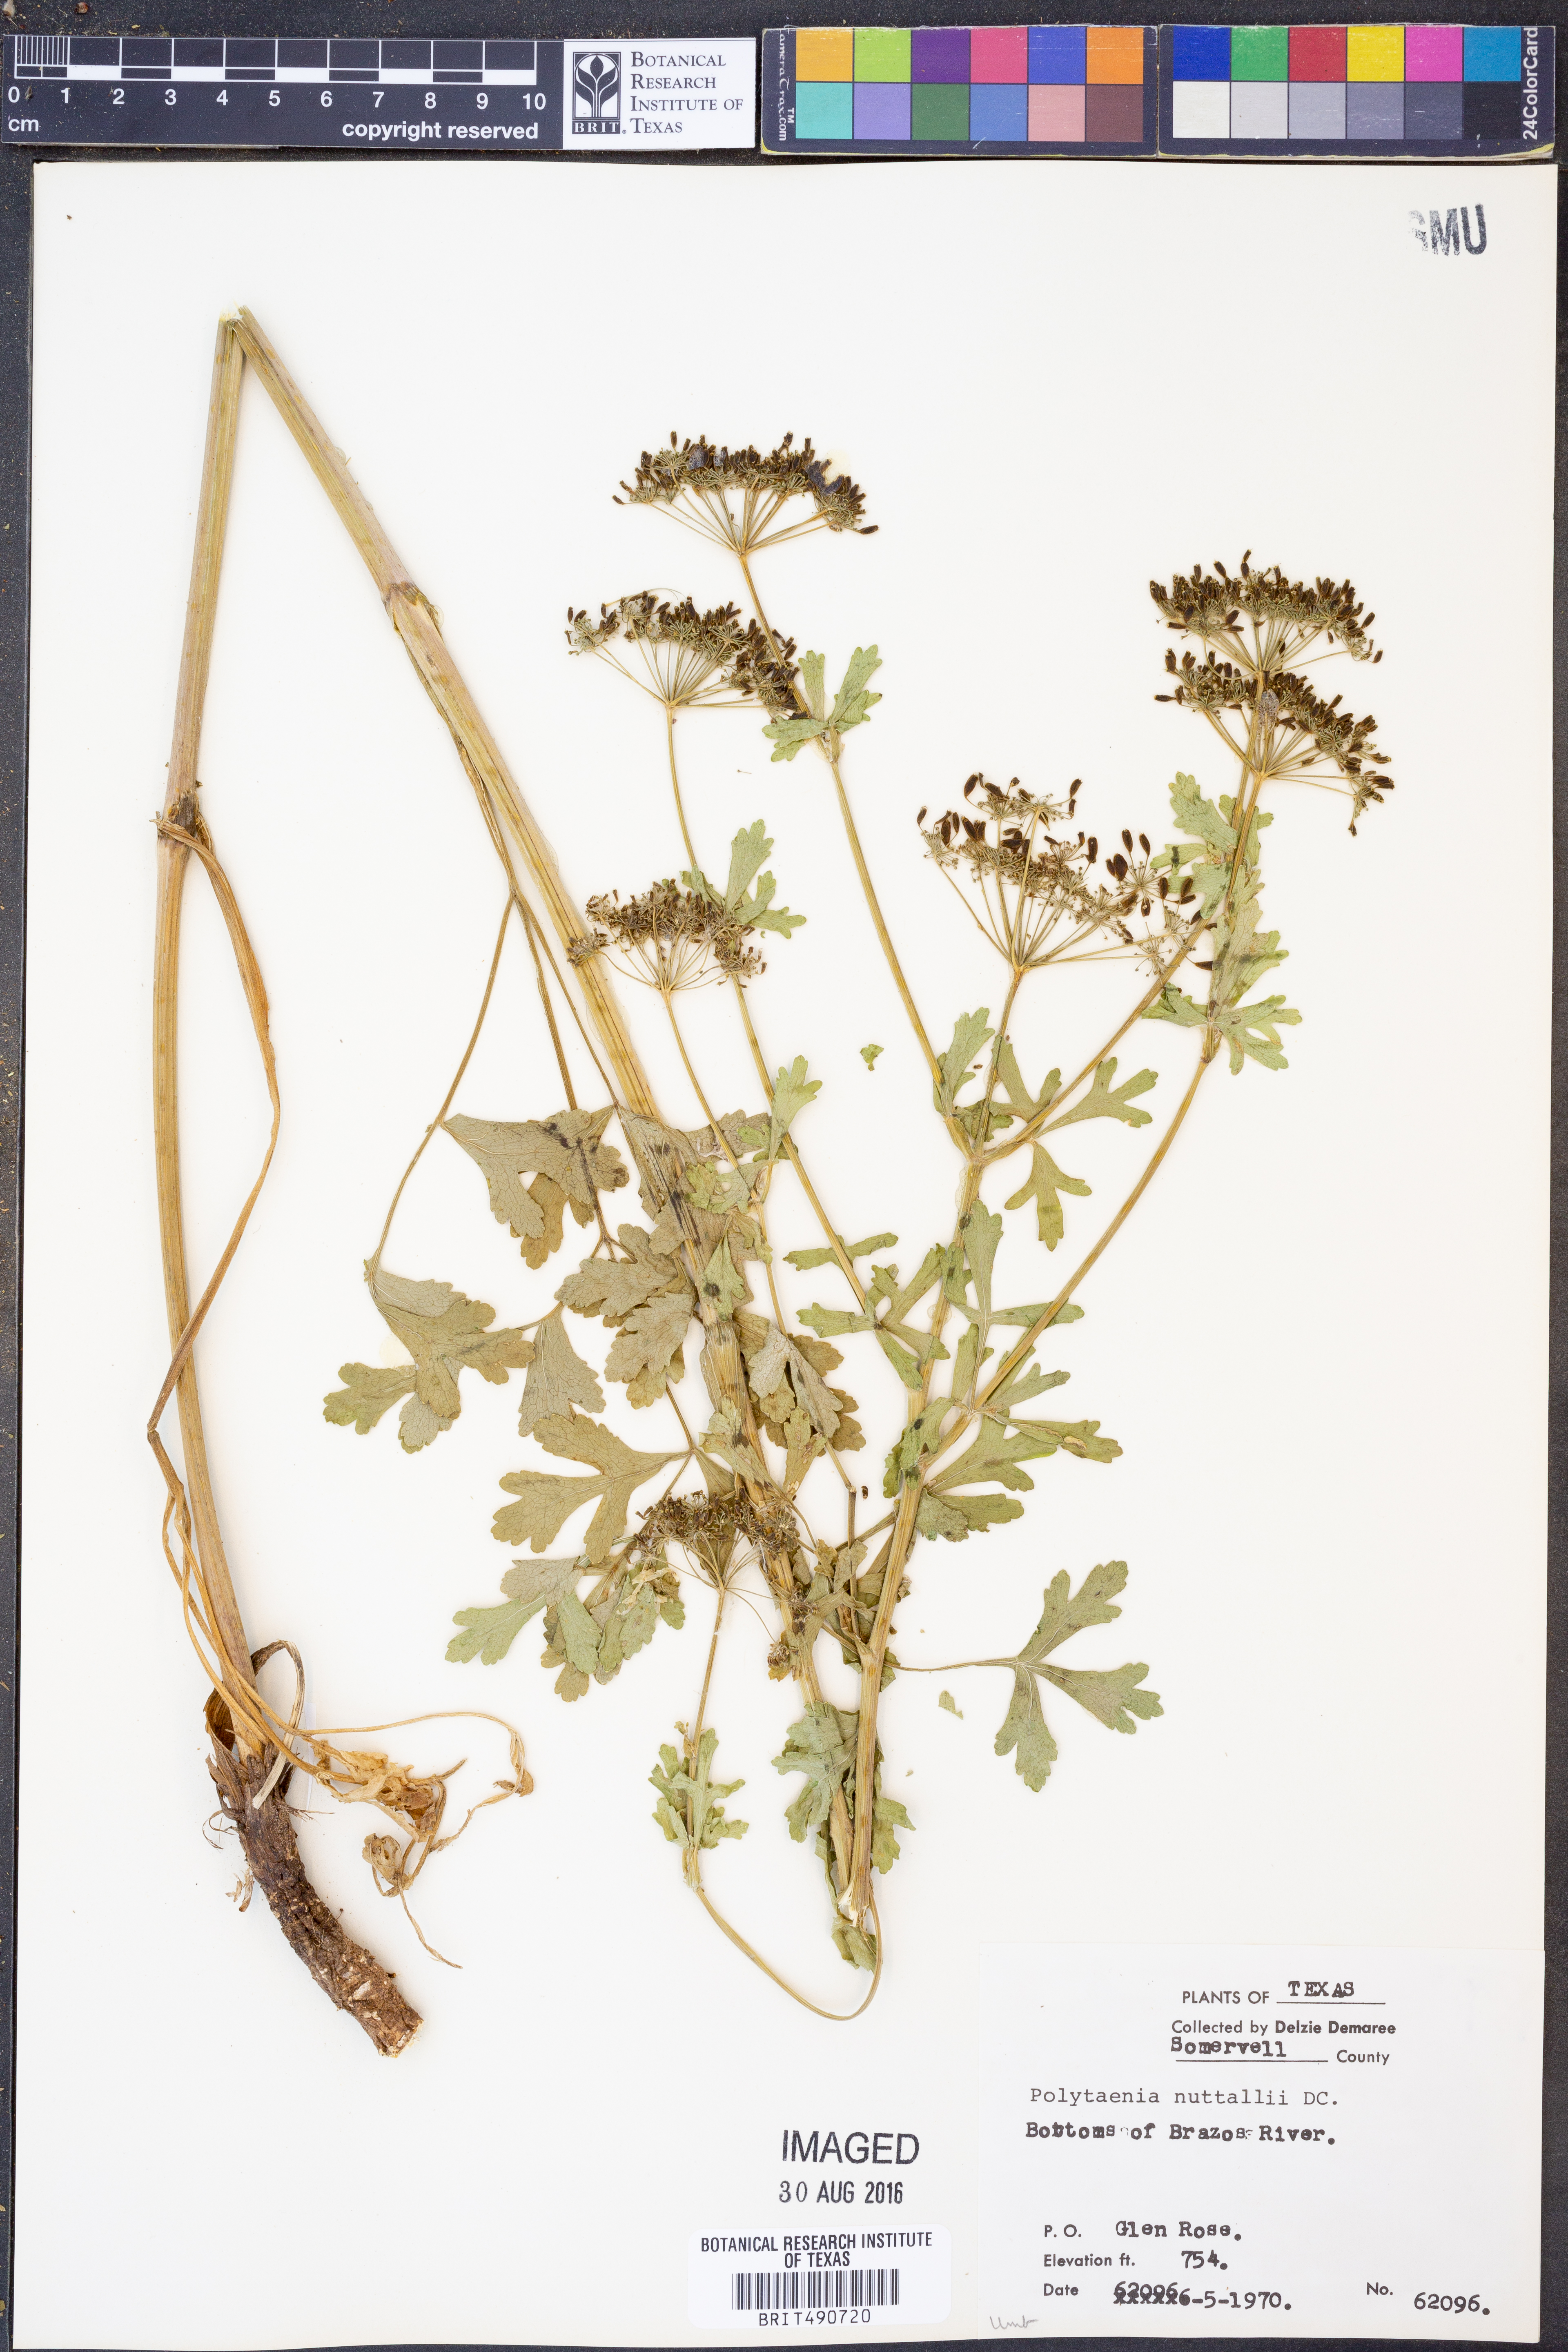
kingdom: Plantae
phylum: Tracheophyta
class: Magnoliopsida
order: Apiales
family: Apiaceae
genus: Polytaenia
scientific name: Polytaenia nuttallii
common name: Prairie-parsley
